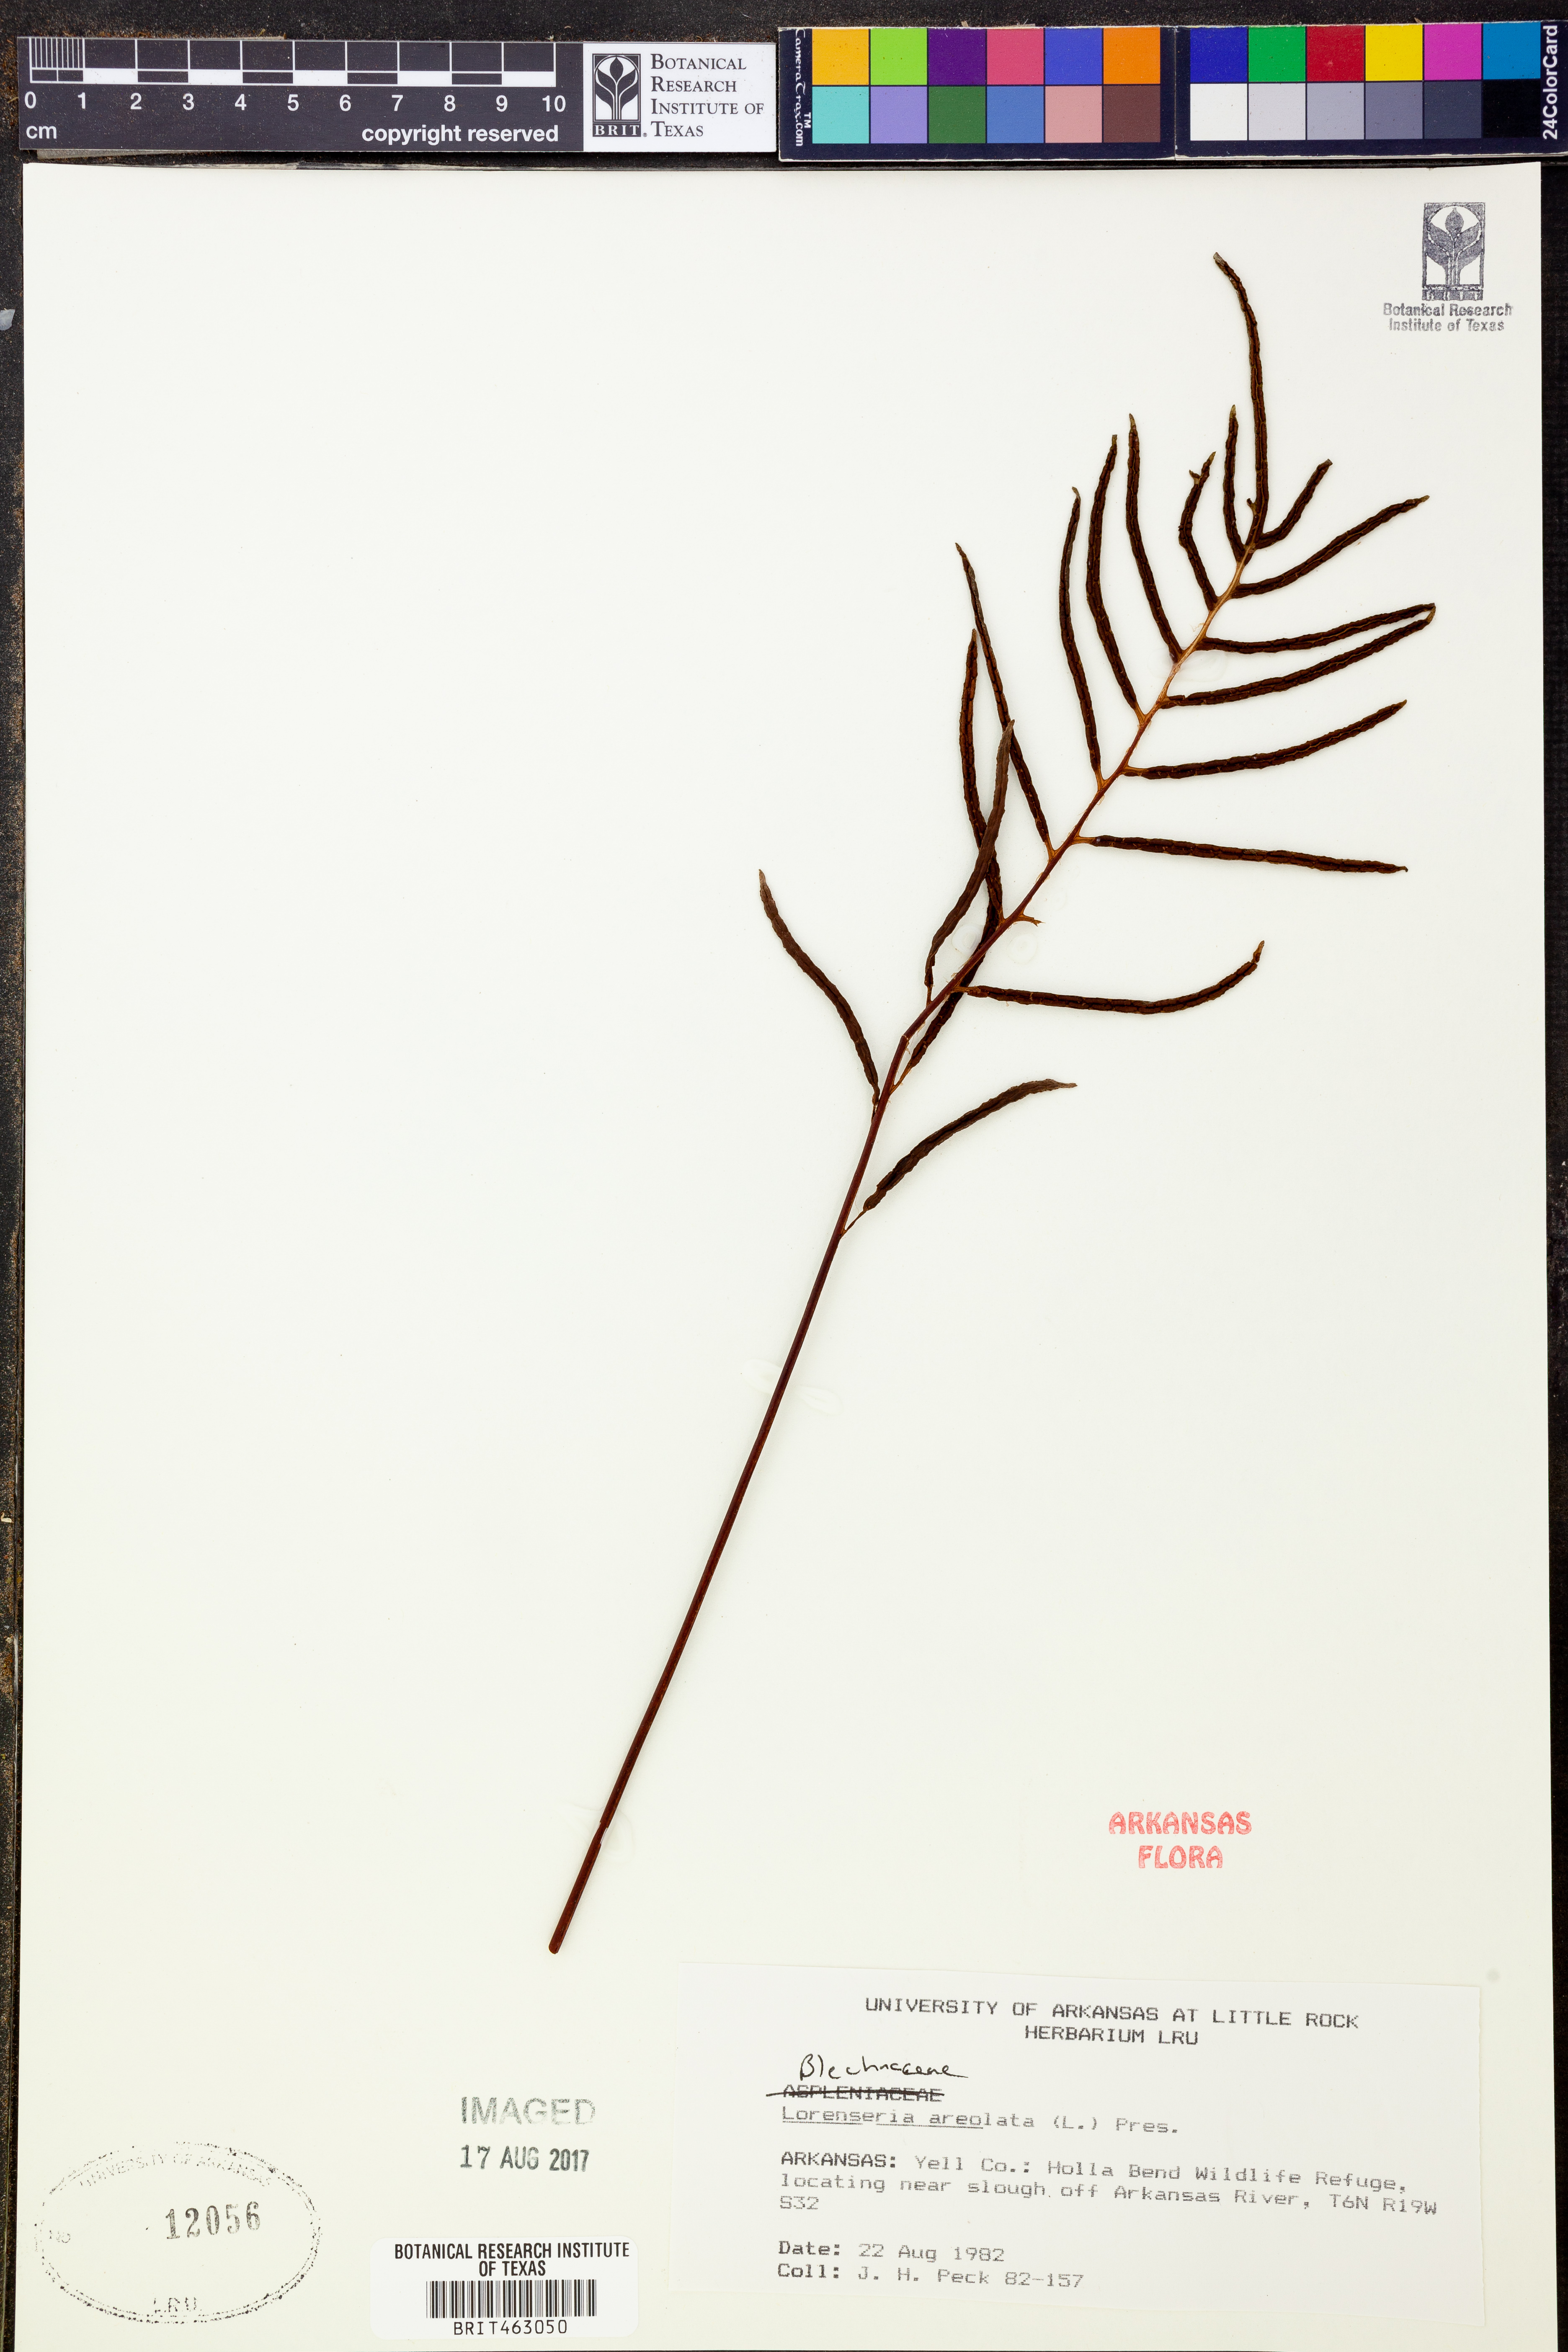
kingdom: Plantae
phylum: Tracheophyta
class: Polypodiopsida
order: Polypodiales
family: Blechnaceae
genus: Lorinseria
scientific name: Lorinseria areolata
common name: Dwarf chain fern
